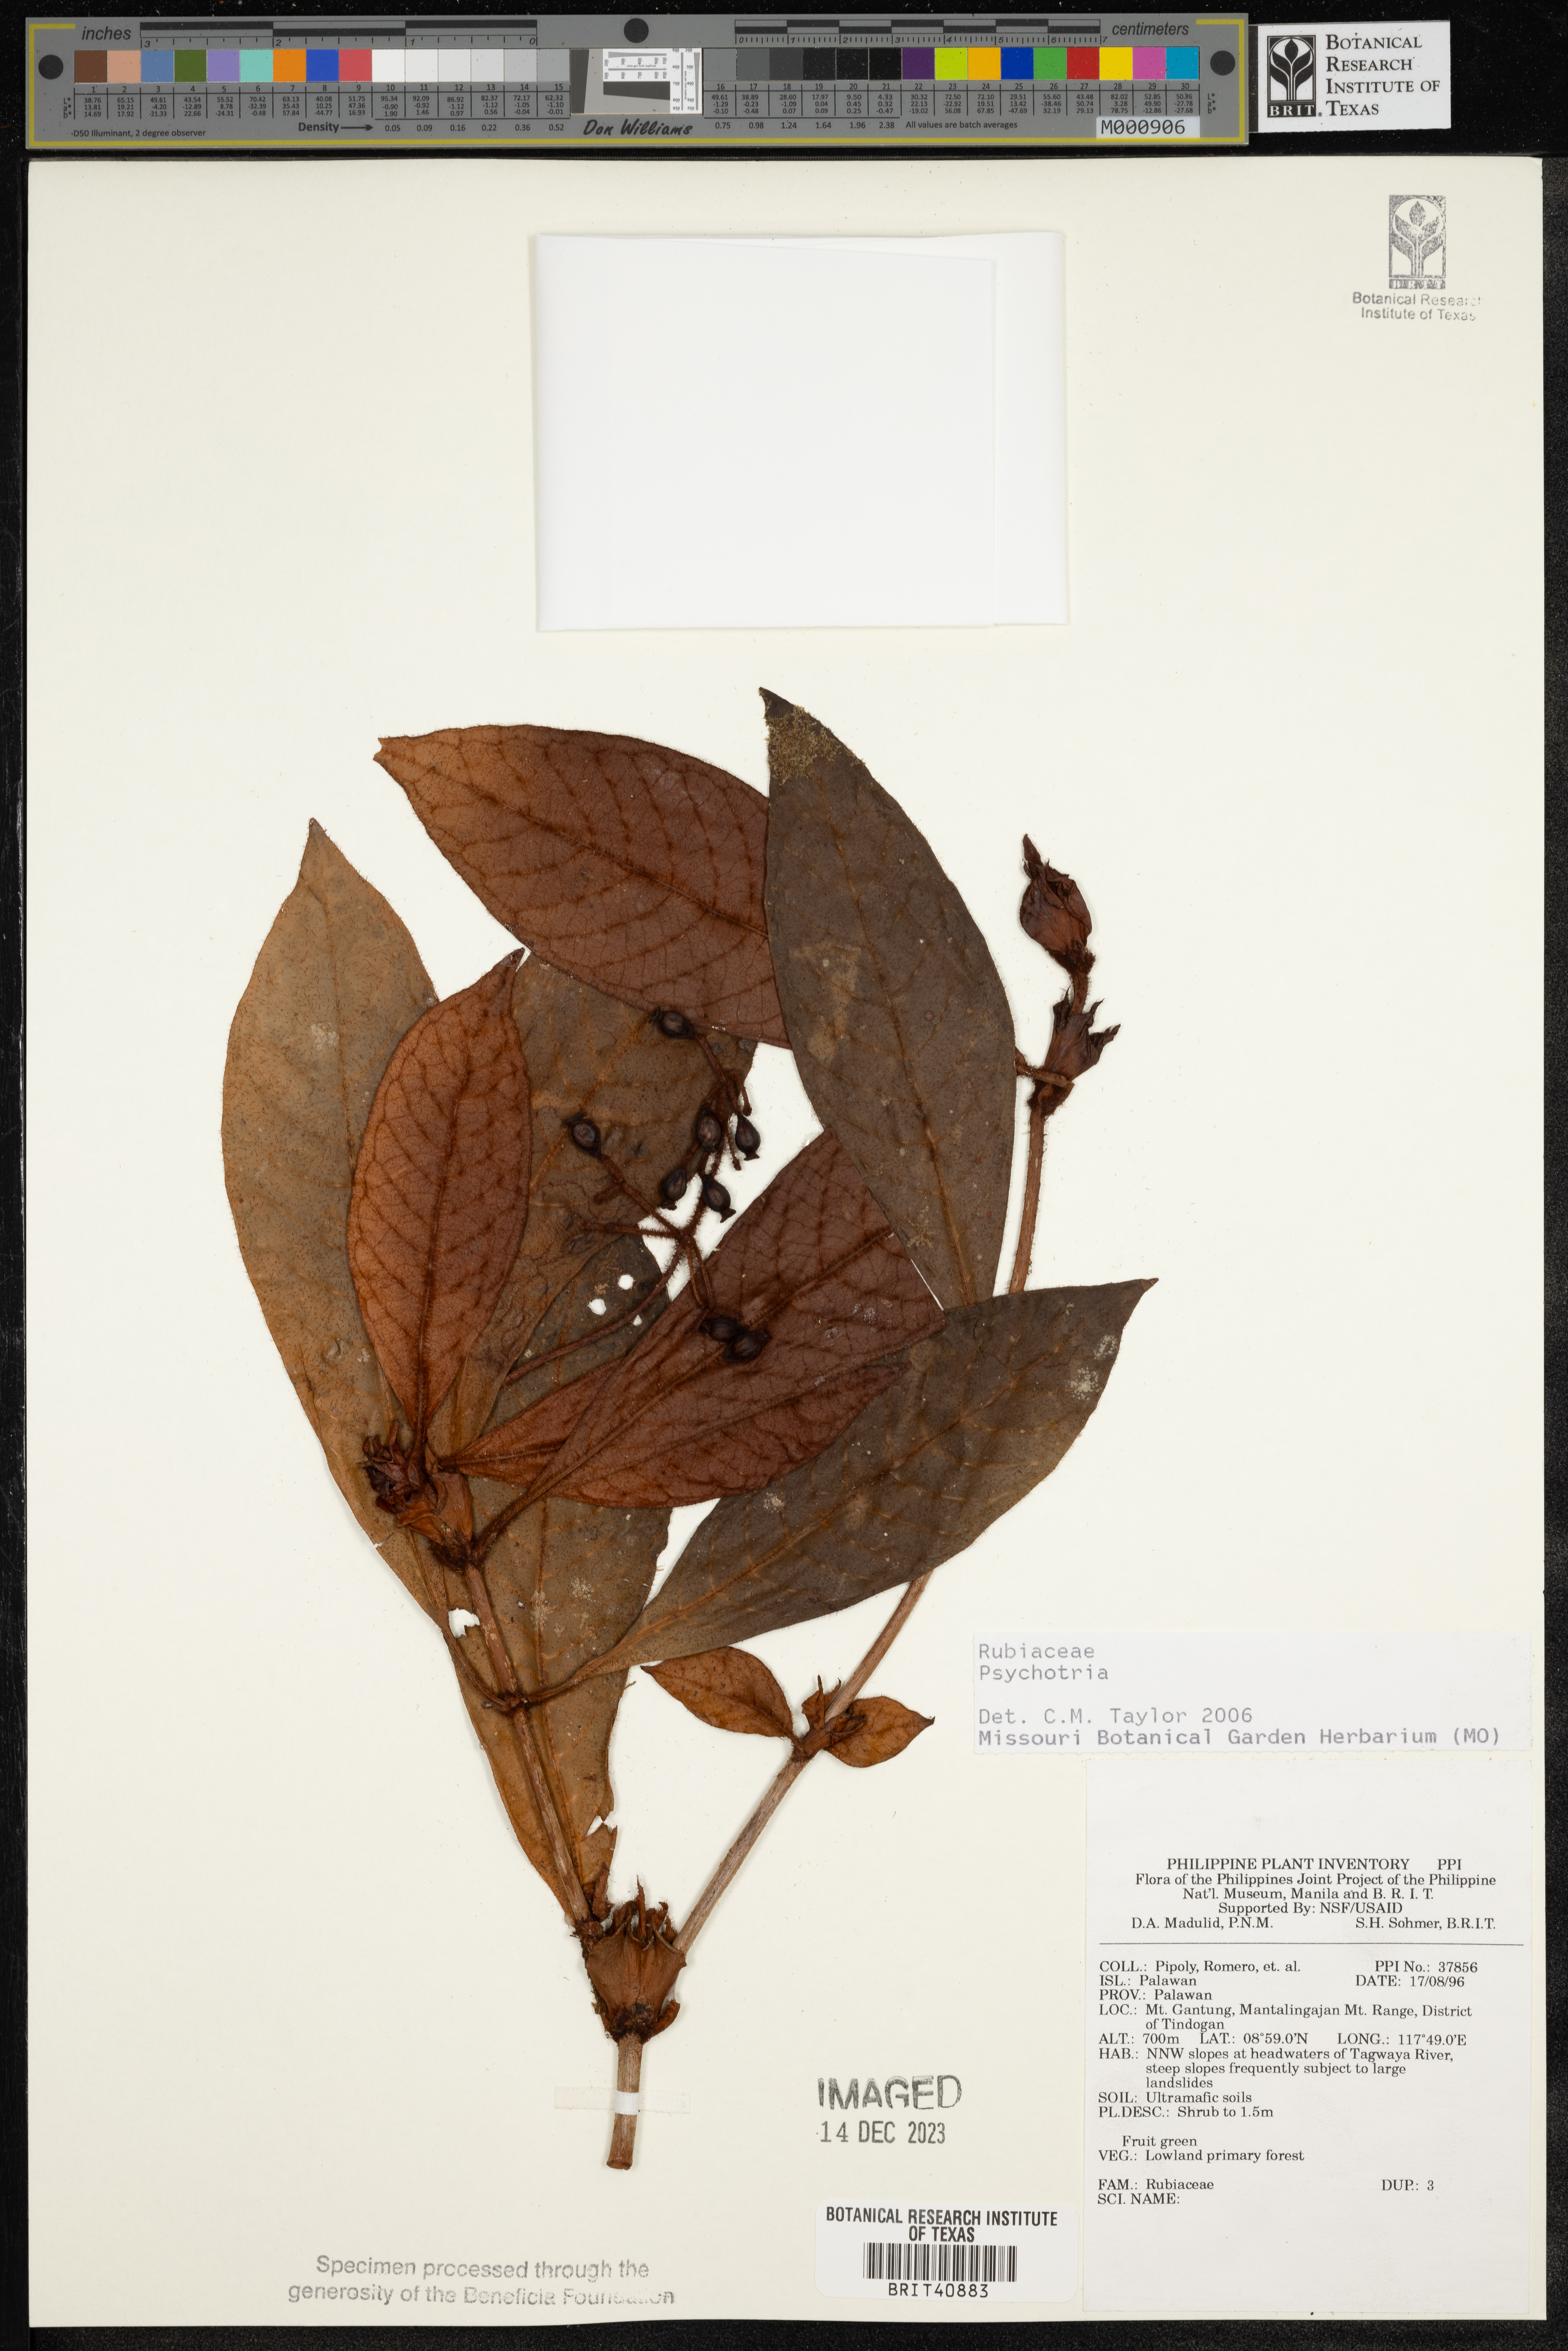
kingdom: Plantae
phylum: Tracheophyta
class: Magnoliopsida
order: Gentianales
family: Rubiaceae
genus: Psychotria
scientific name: Psychotria
